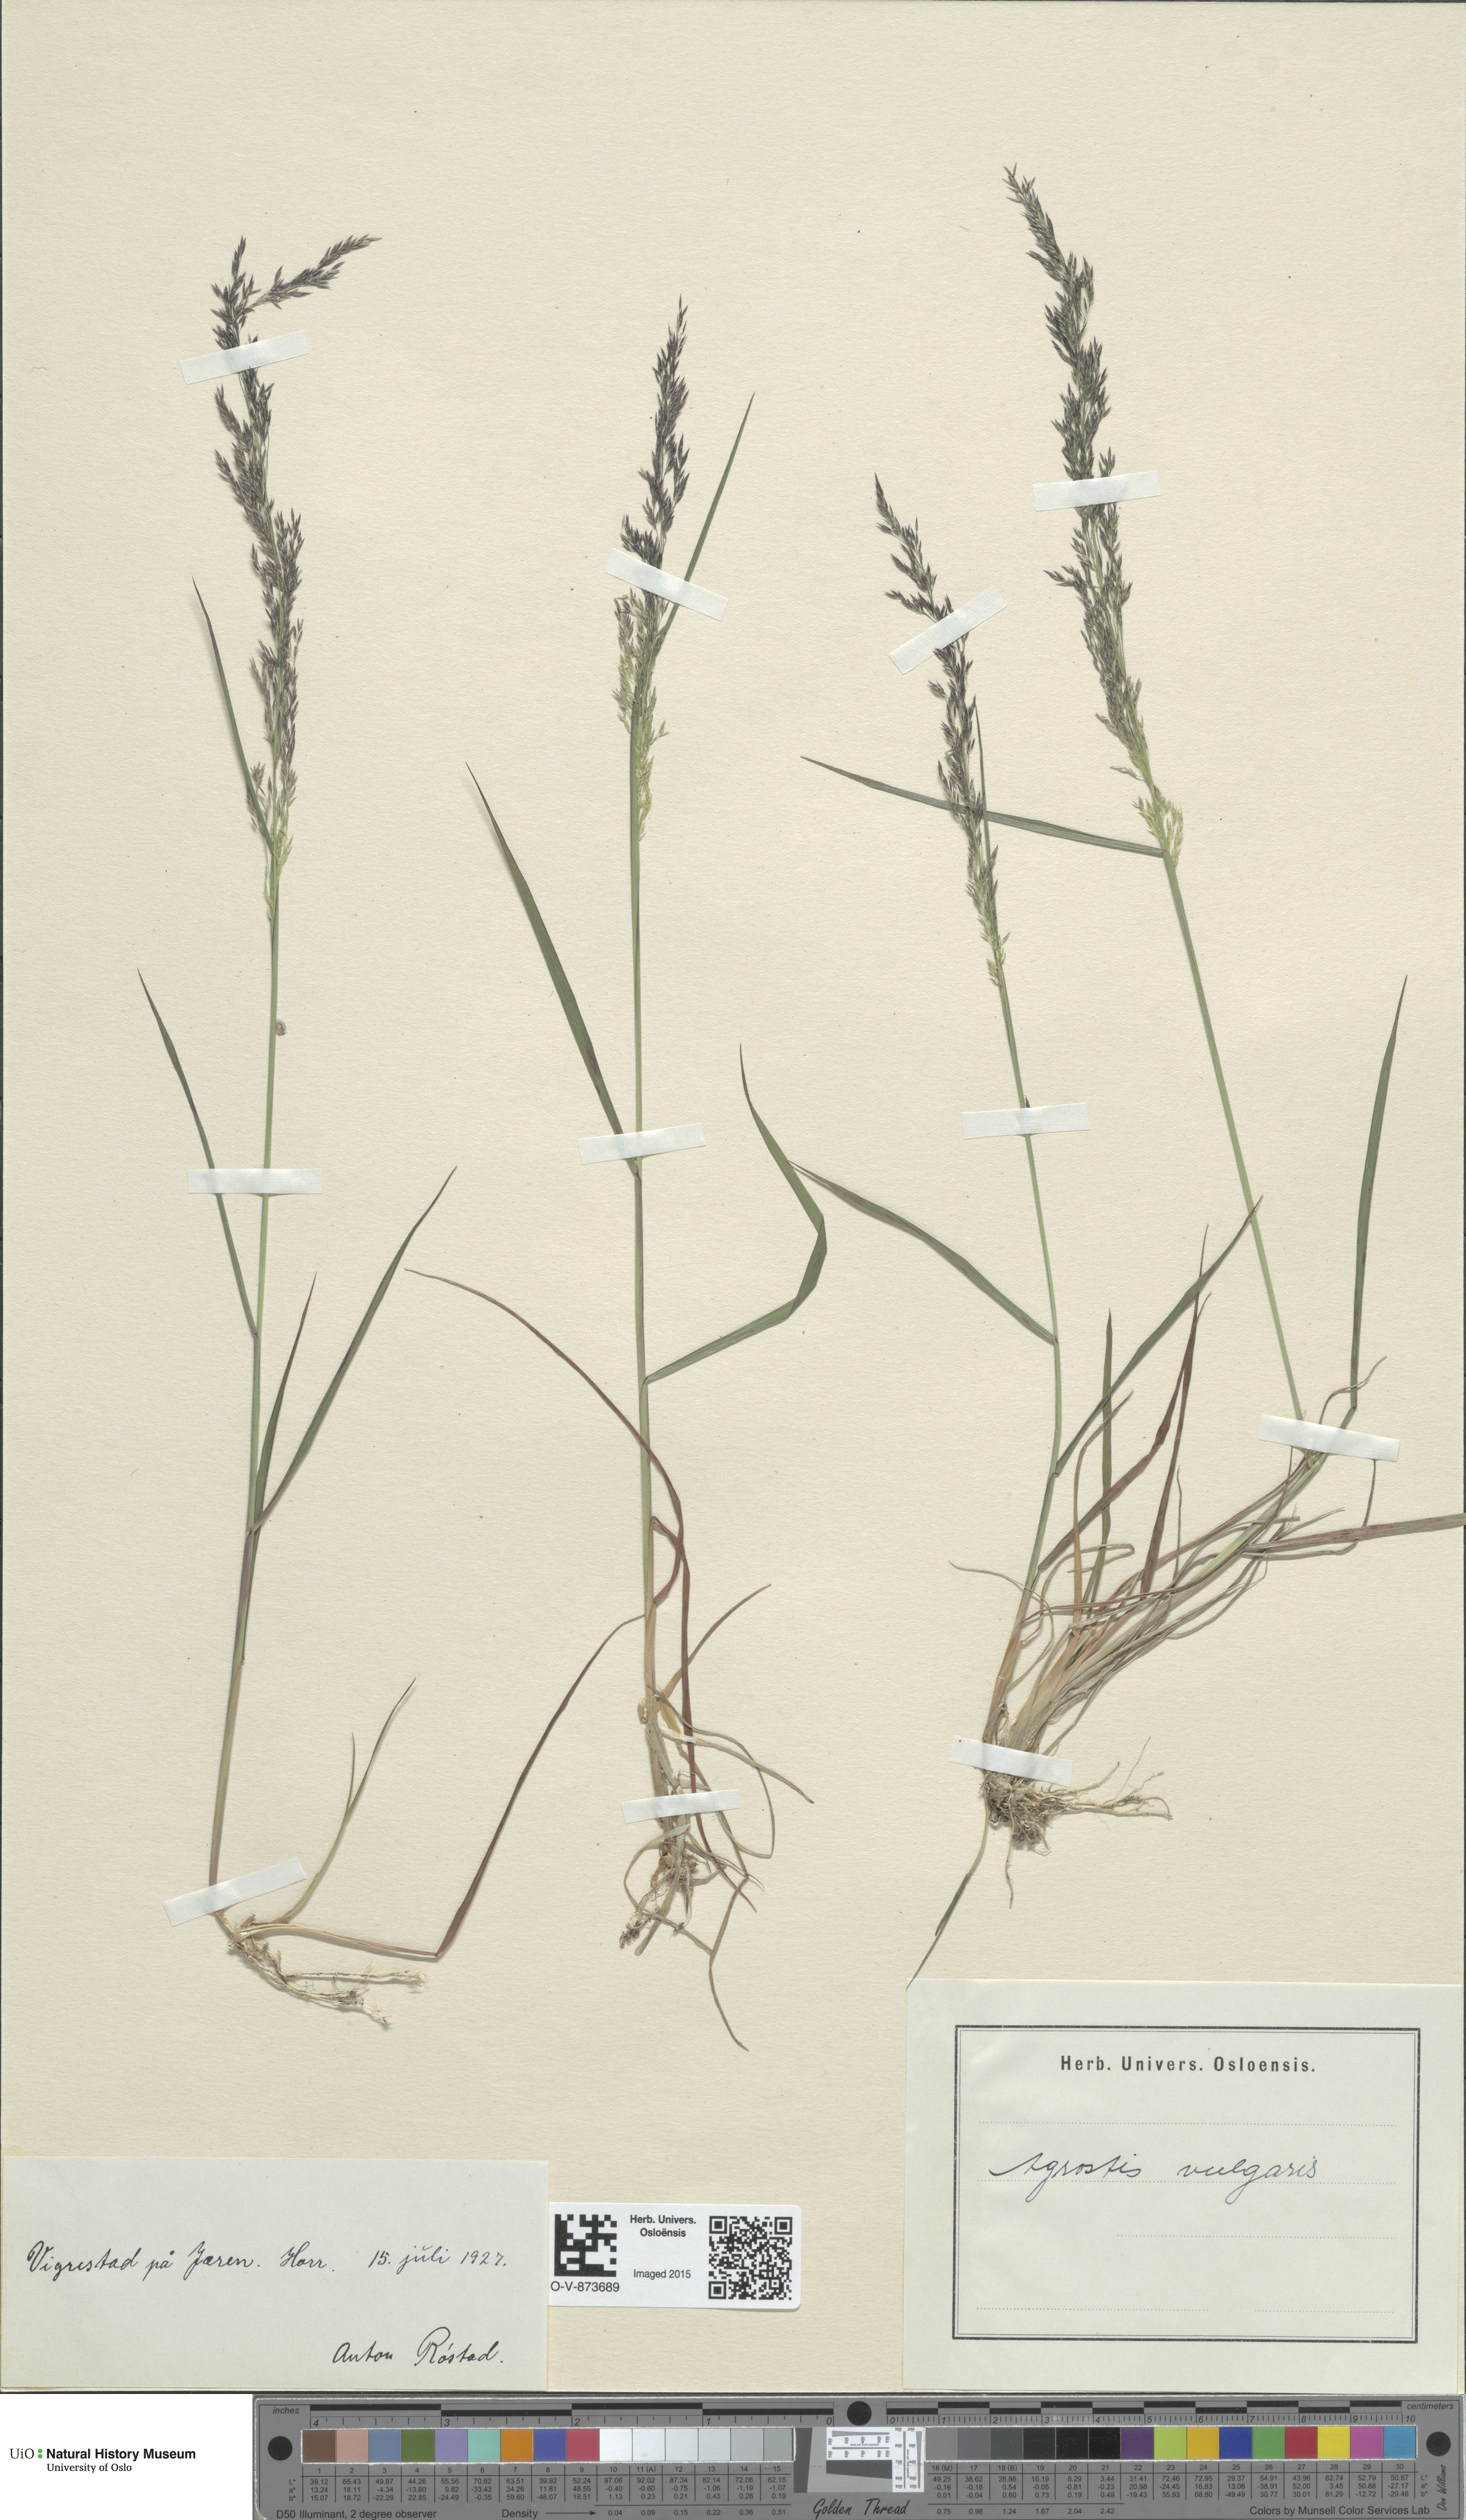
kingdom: Plantae
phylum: Tracheophyta
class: Liliopsida
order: Poales
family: Poaceae
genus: Agrostis
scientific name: Agrostis capillaris
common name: Colonial bentgrass
